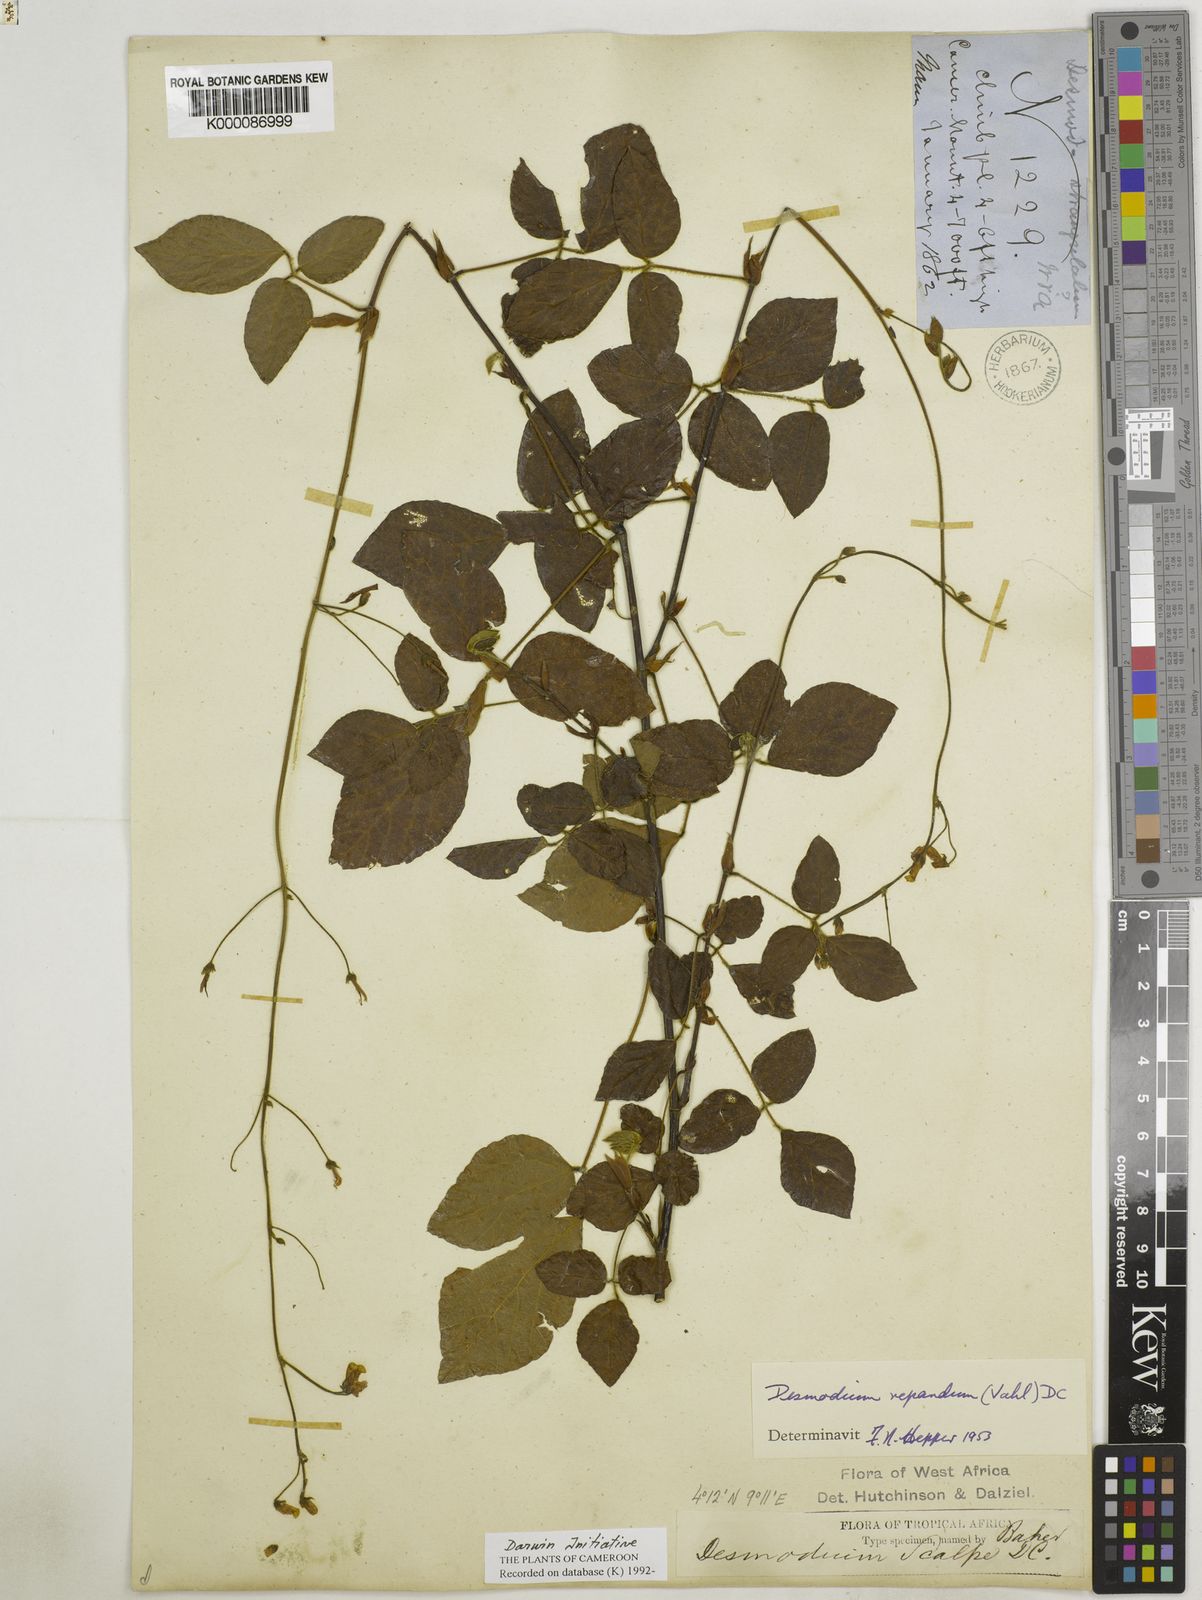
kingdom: Plantae
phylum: Tracheophyta
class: Magnoliopsida
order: Fabales
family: Fabaceae
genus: Desmodium
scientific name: Desmodium
